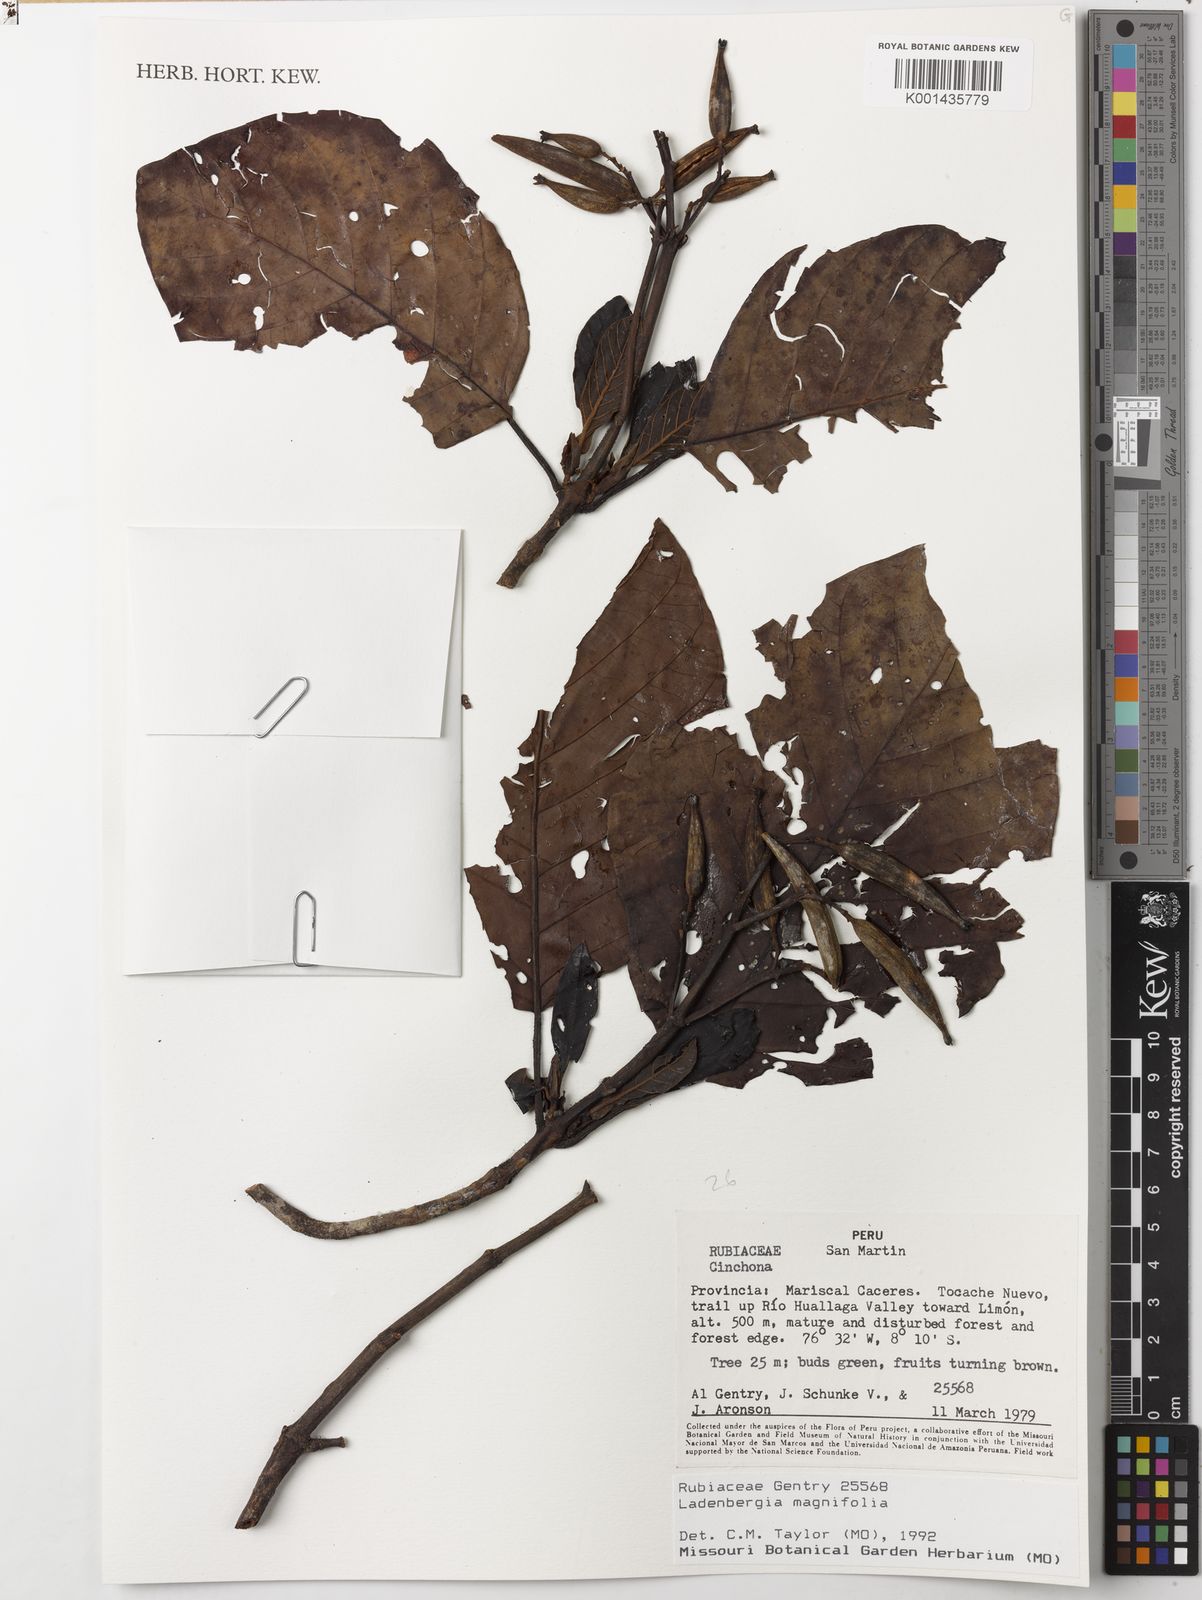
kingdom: Plantae
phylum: Tracheophyta
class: Magnoliopsida
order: Gentianales
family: Rubiaceae
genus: Ladenbergia
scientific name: Ladenbergia oblongifolia
